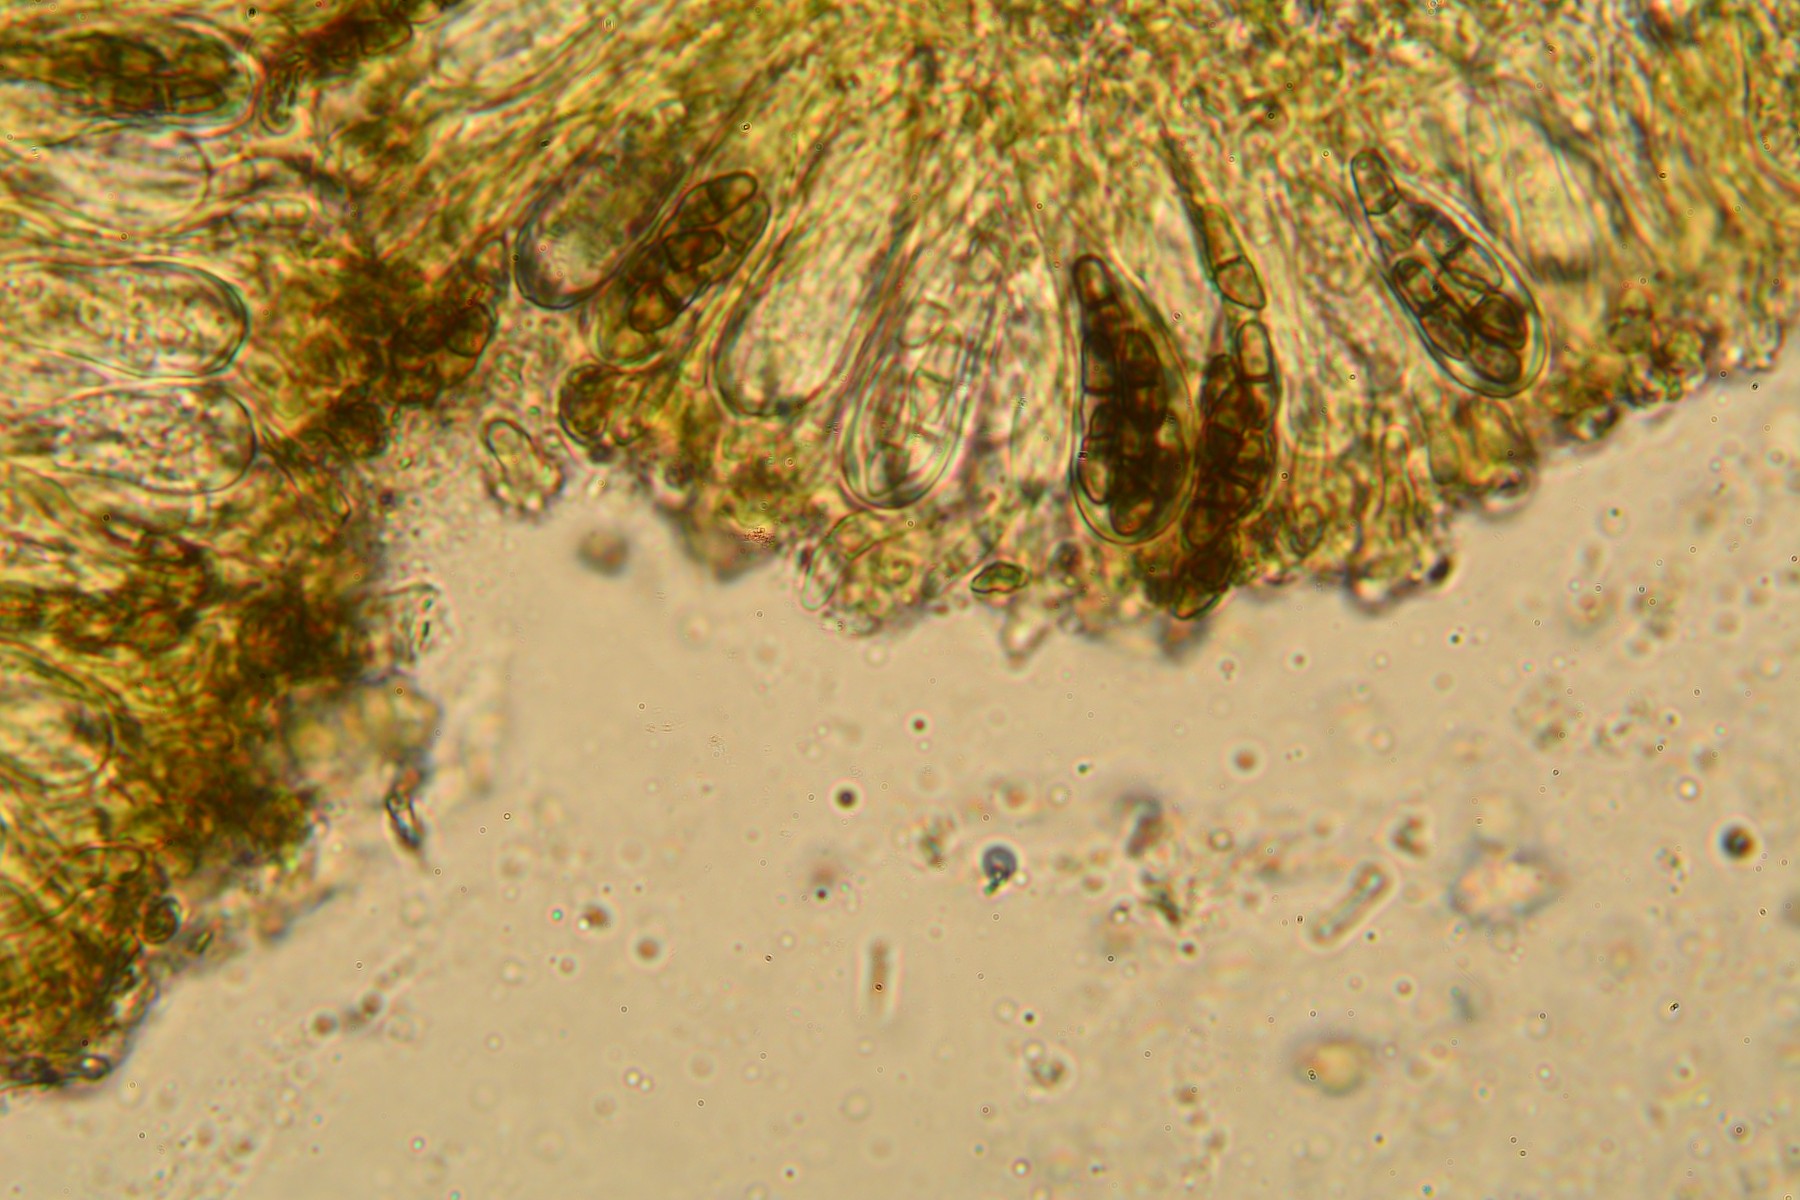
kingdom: Fungi
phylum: Ascomycota
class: Dothideomycetes
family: Rhizodiscinaceae
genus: Rhizodiscina
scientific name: Rhizodiscina lignyota
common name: almindelig begskive
